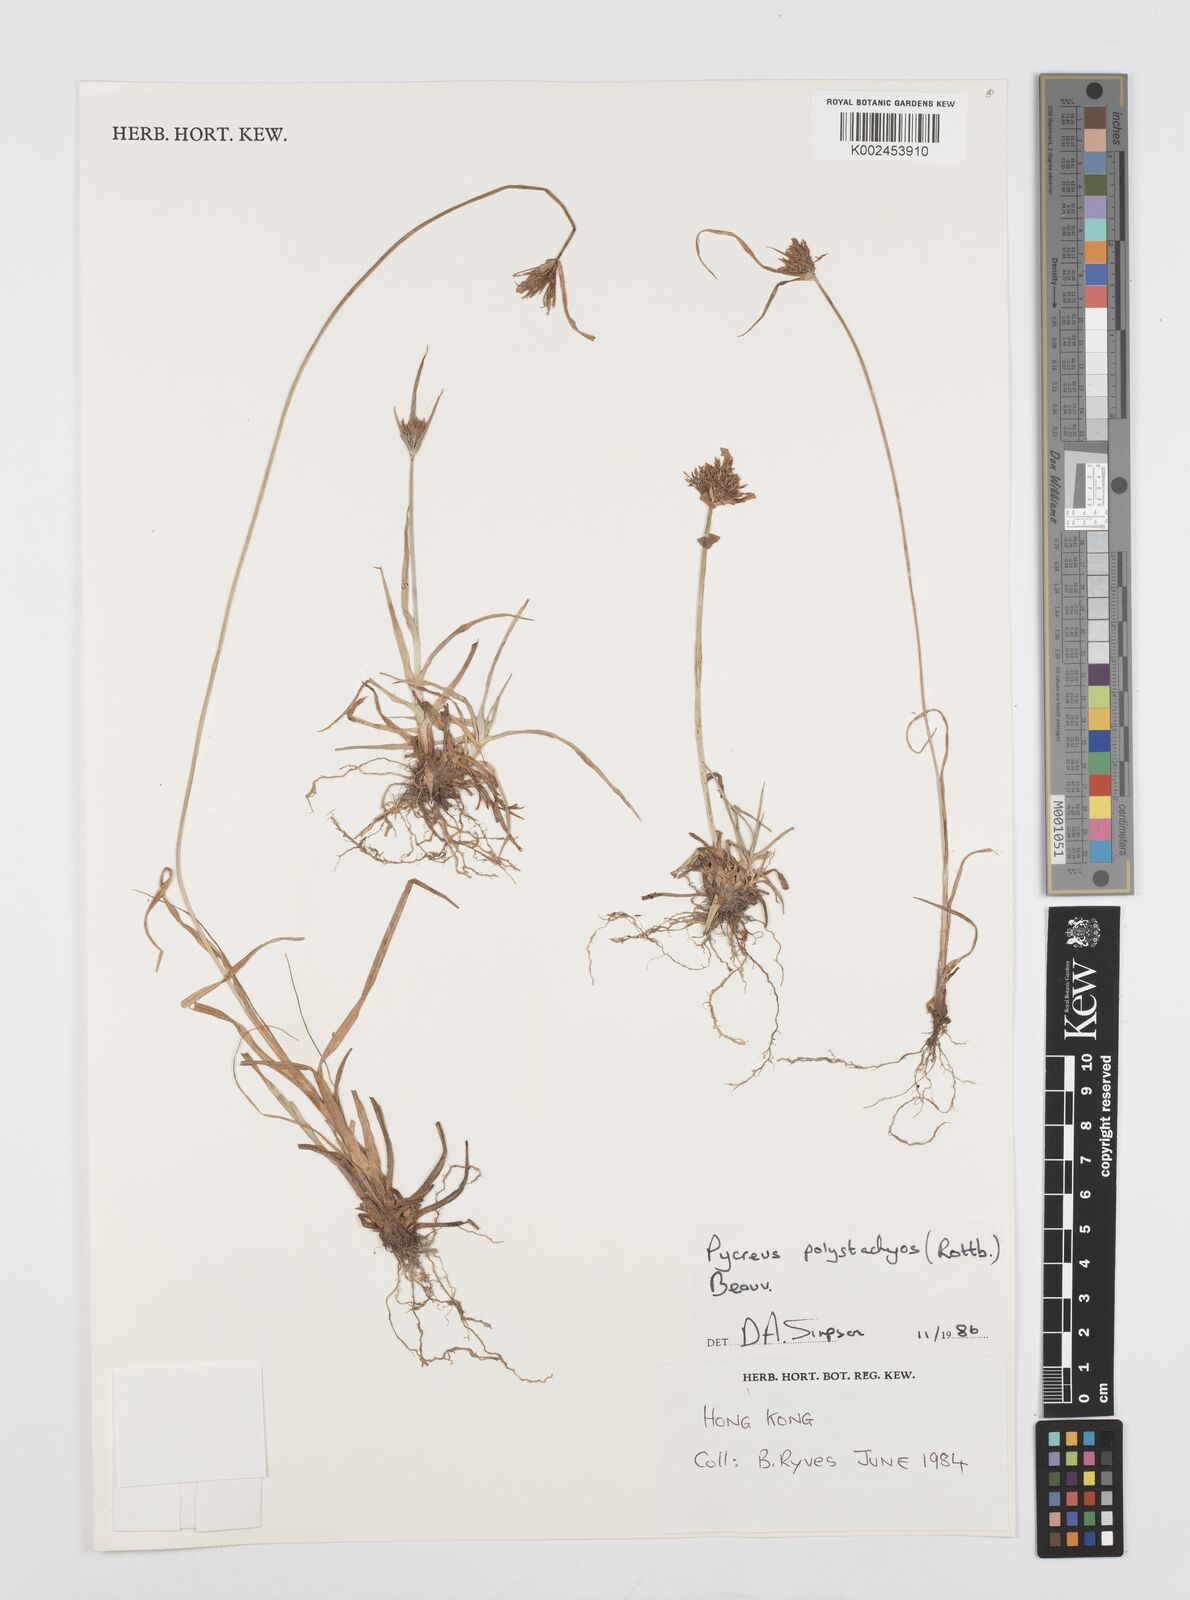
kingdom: Plantae
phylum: Tracheophyta
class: Liliopsida
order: Poales
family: Cyperaceae
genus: Cyperus
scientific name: Cyperus polystachyos
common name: Bunchy flat sedge
